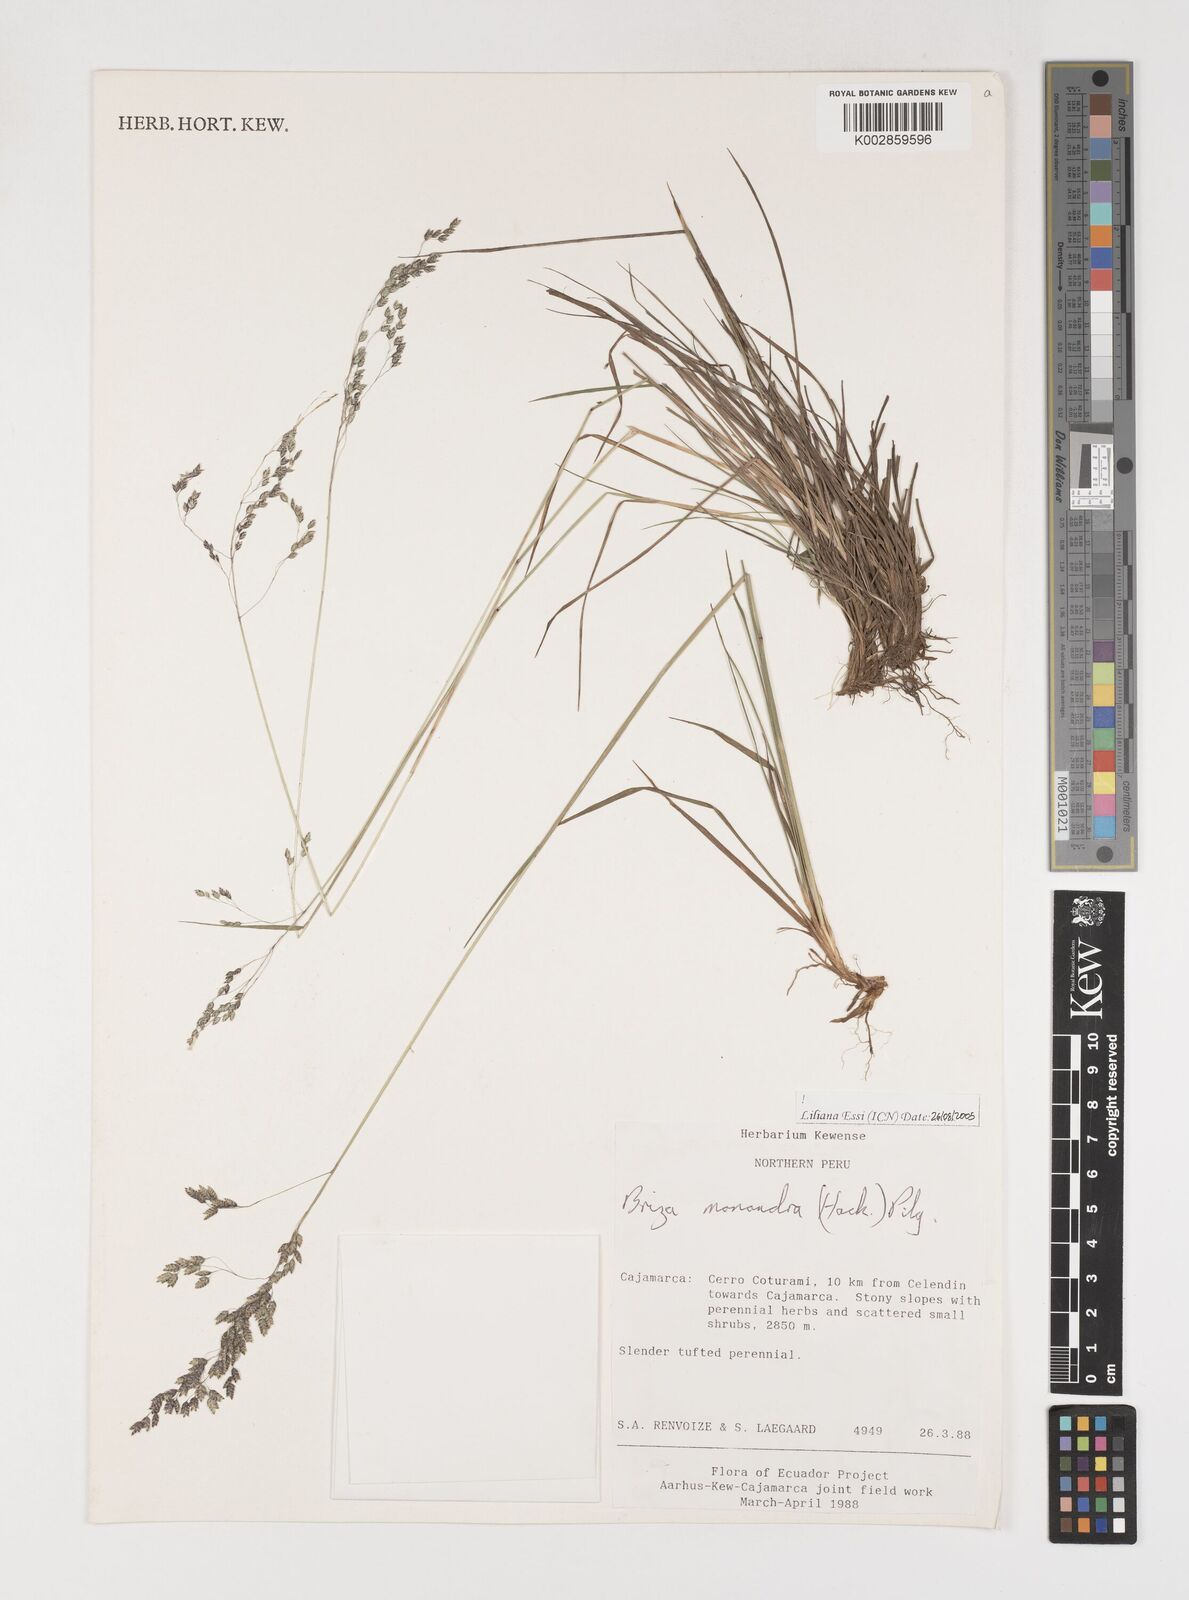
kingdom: Plantae
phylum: Tracheophyta
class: Liliopsida
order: Poales
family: Poaceae
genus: Poidium
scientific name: Poidium monandrum
